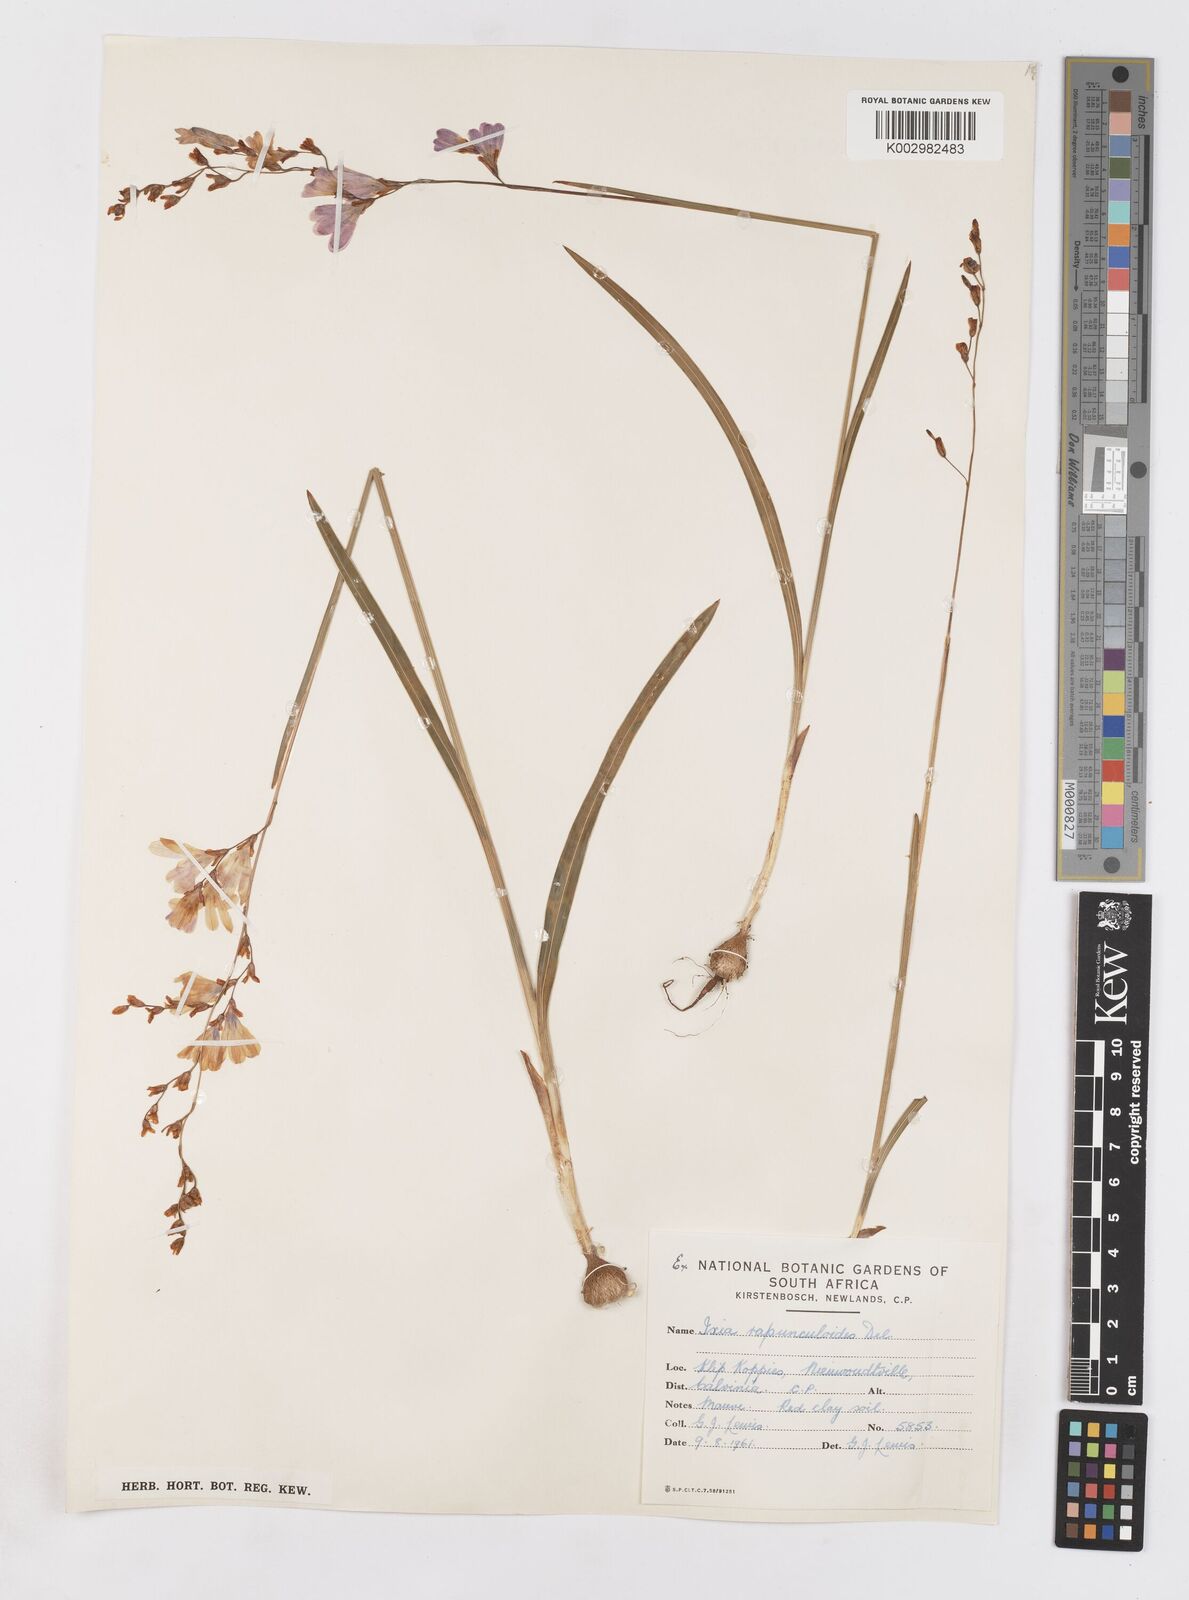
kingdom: Plantae
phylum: Tracheophyta
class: Liliopsida
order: Asparagales
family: Iridaceae
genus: Ixia
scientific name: Ixia rapunculoides
